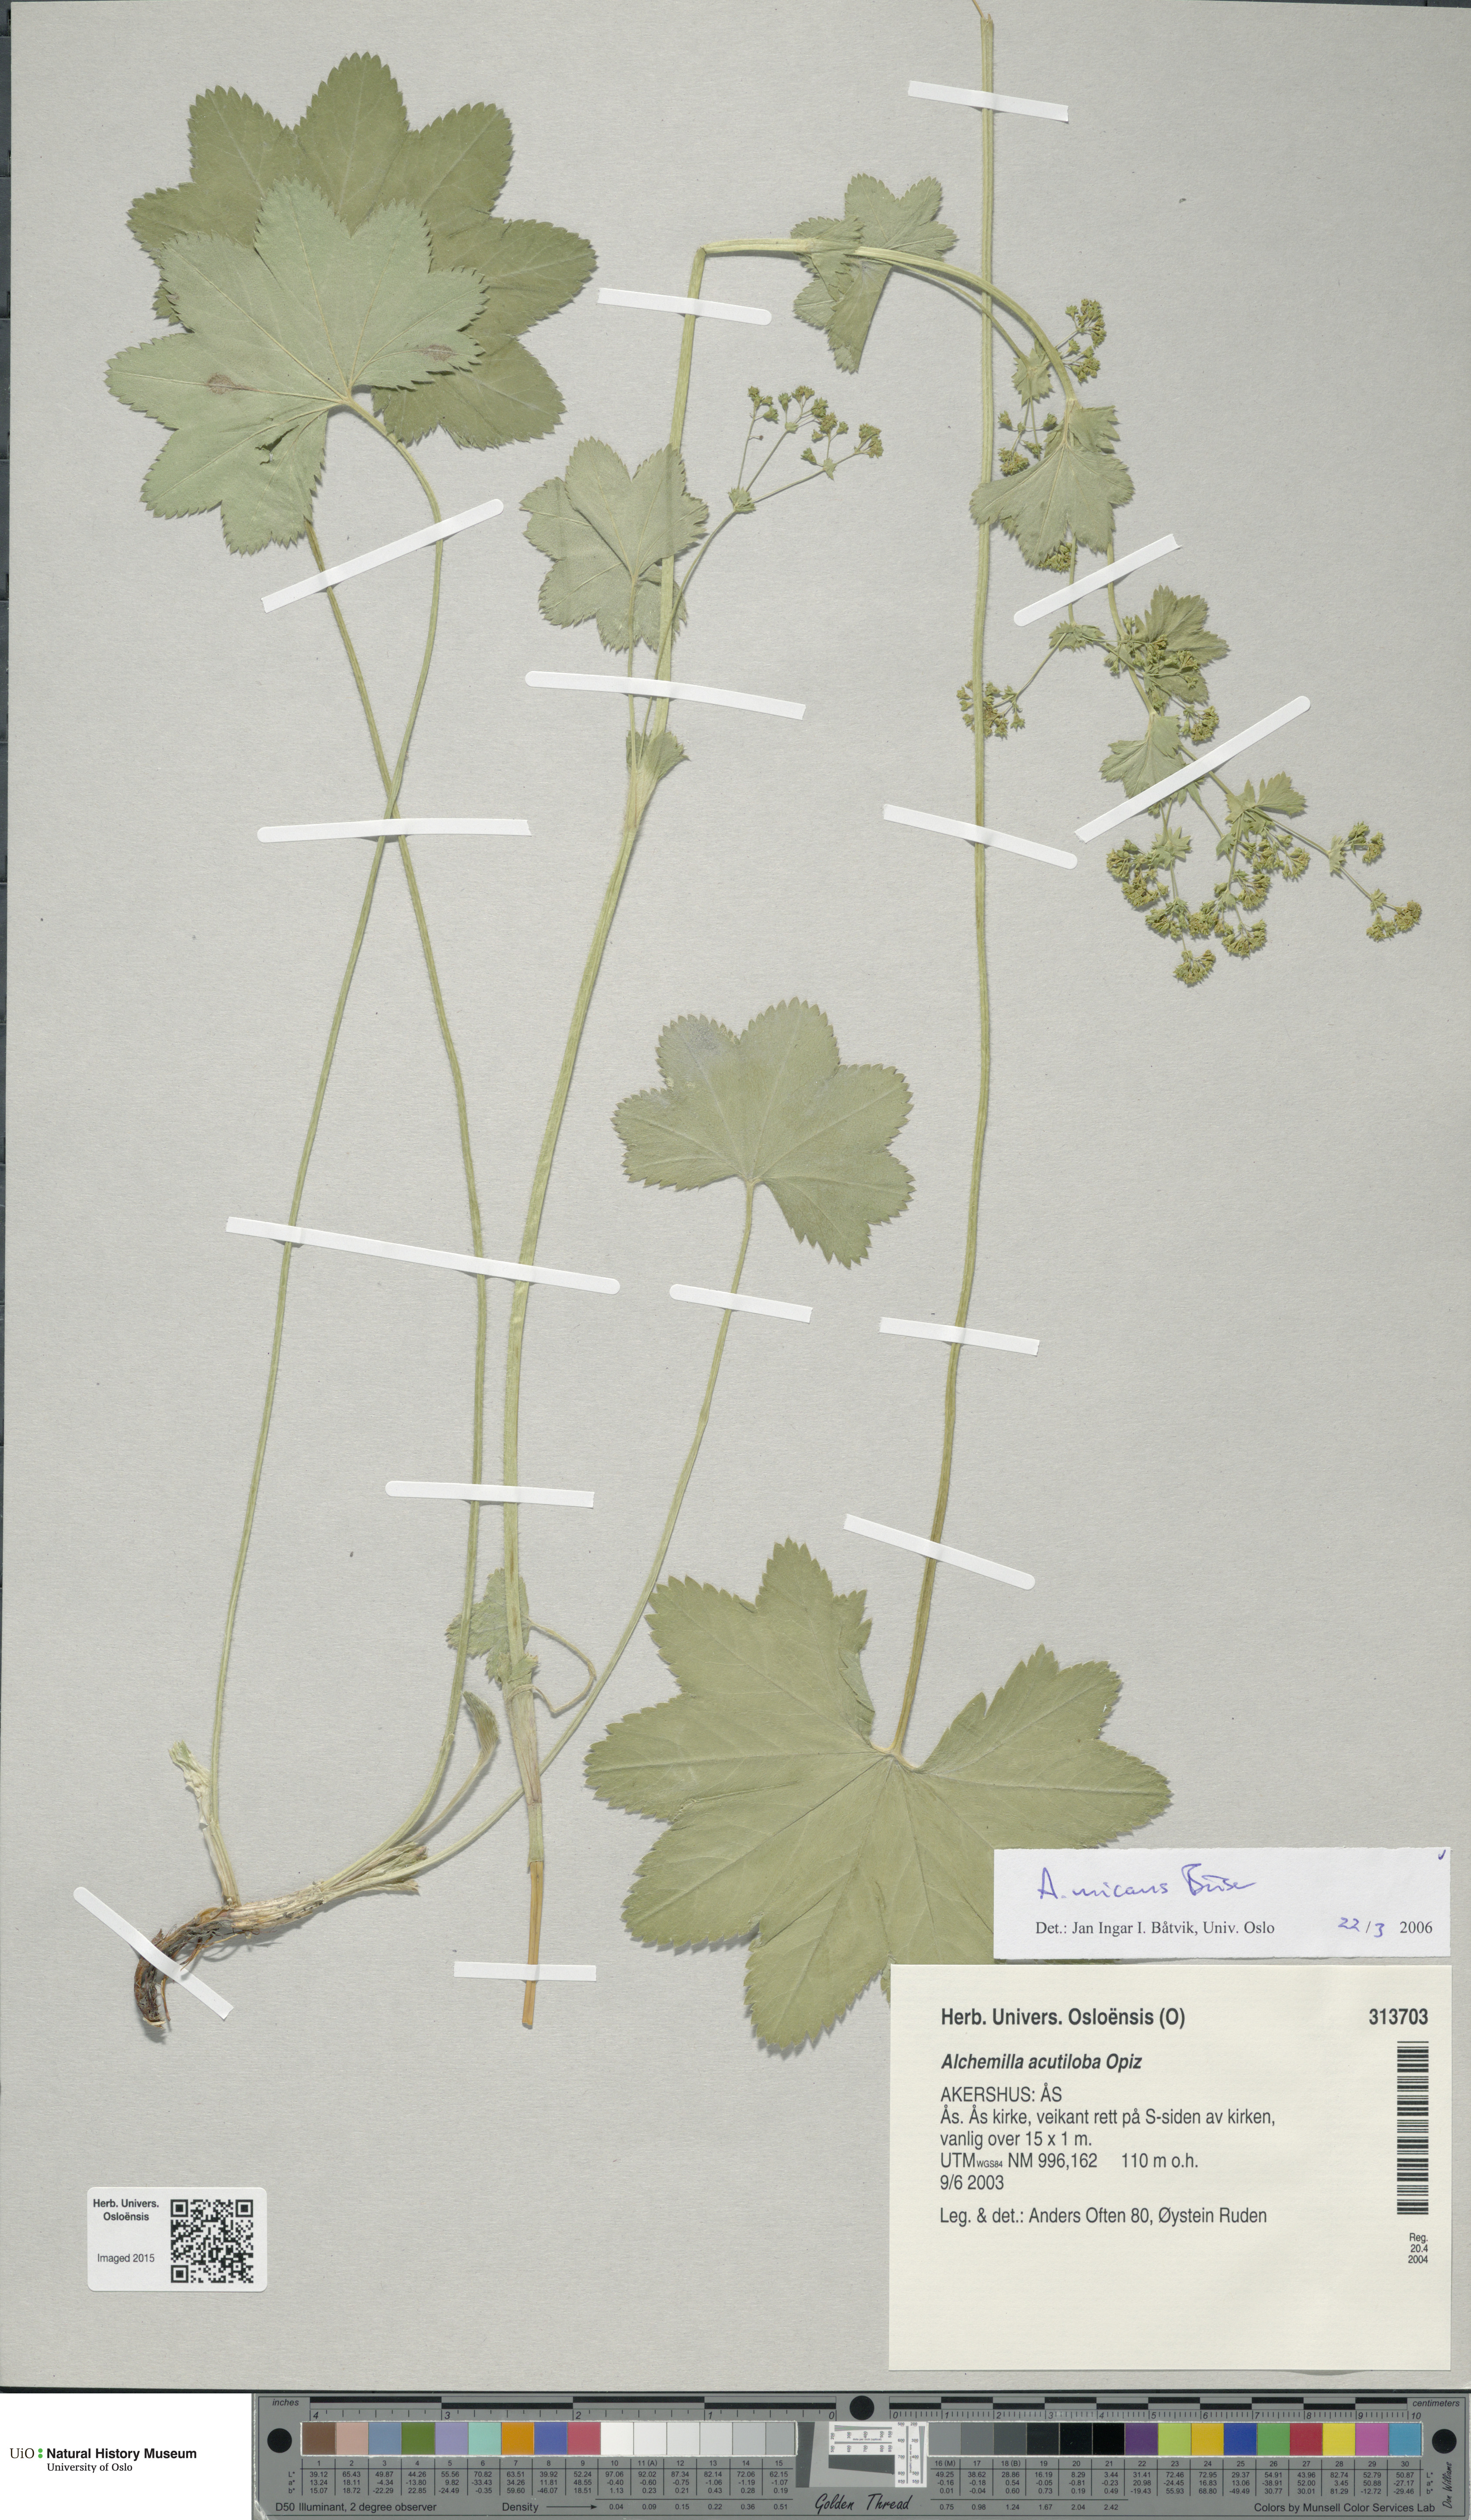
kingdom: Plantae
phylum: Tracheophyta
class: Magnoliopsida
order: Rosales
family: Rosaceae
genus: Alchemilla
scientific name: Alchemilla micans
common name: Gleaming lady's mantle
